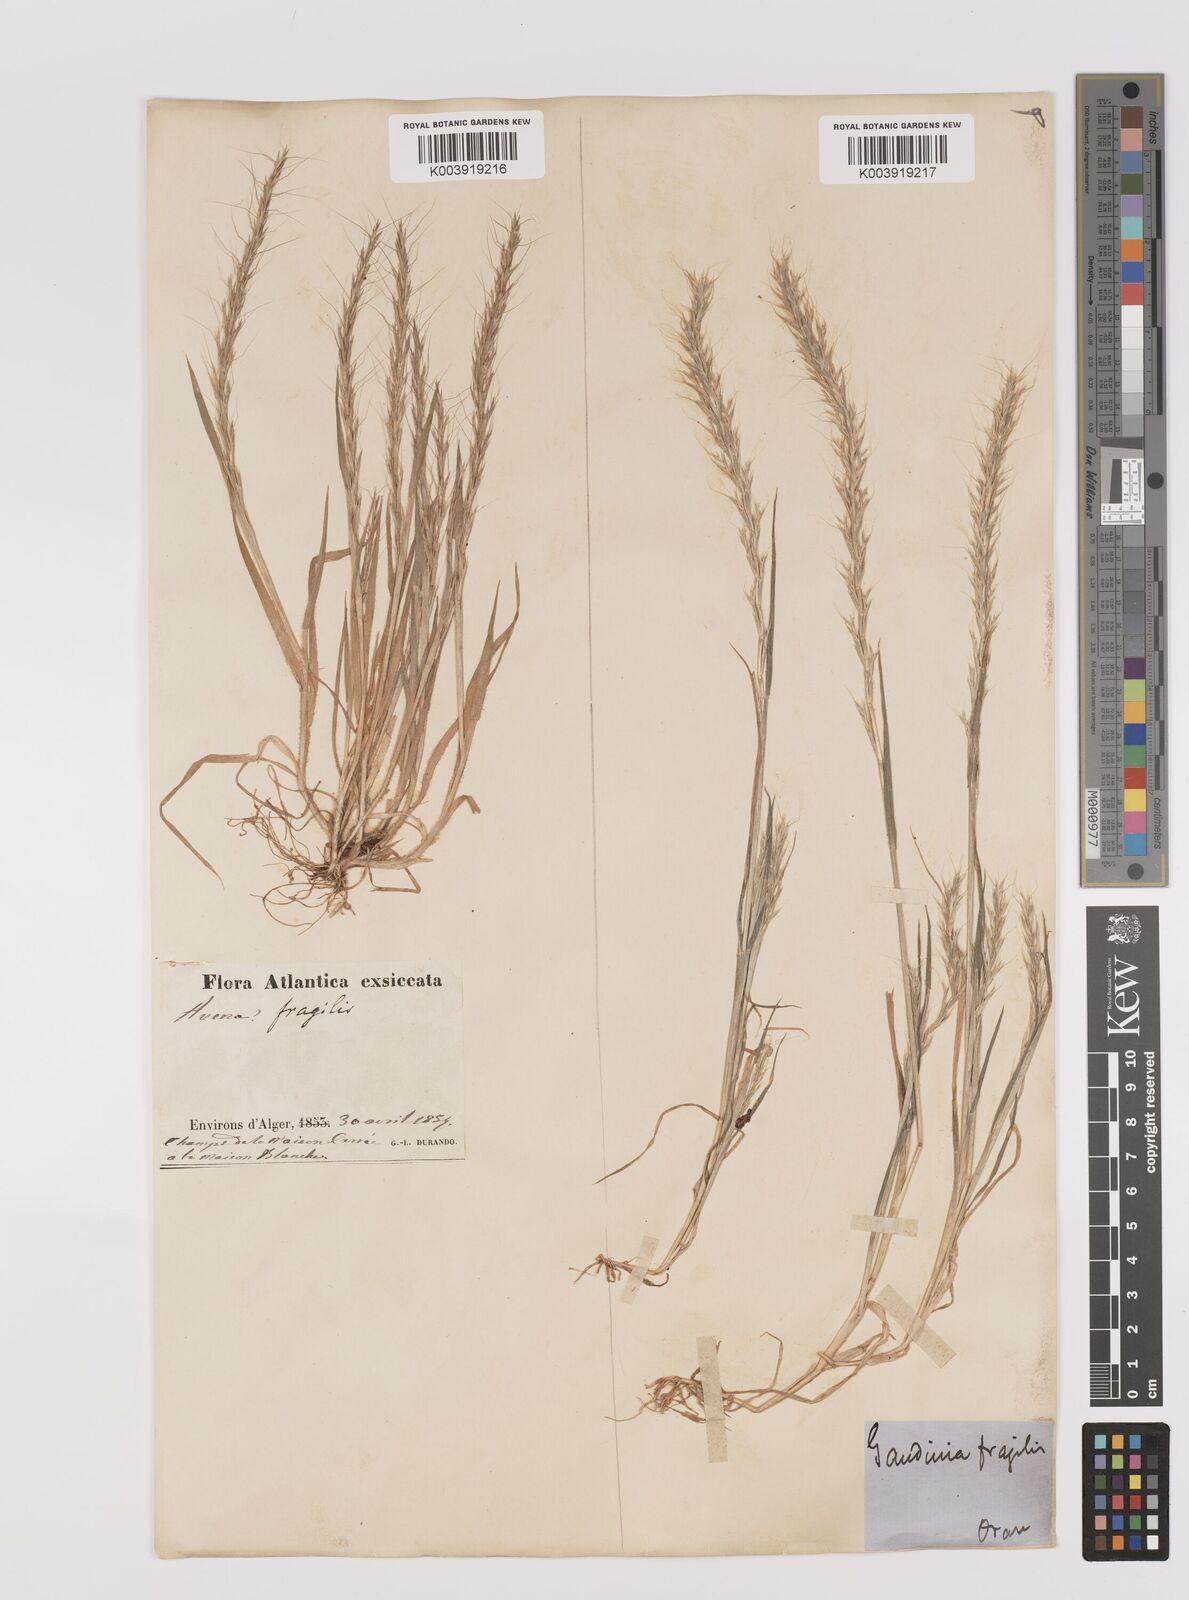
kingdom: Plantae
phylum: Tracheophyta
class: Liliopsida
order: Poales
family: Poaceae
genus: Gaudinia
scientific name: Gaudinia fragilis
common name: French oat-grass
